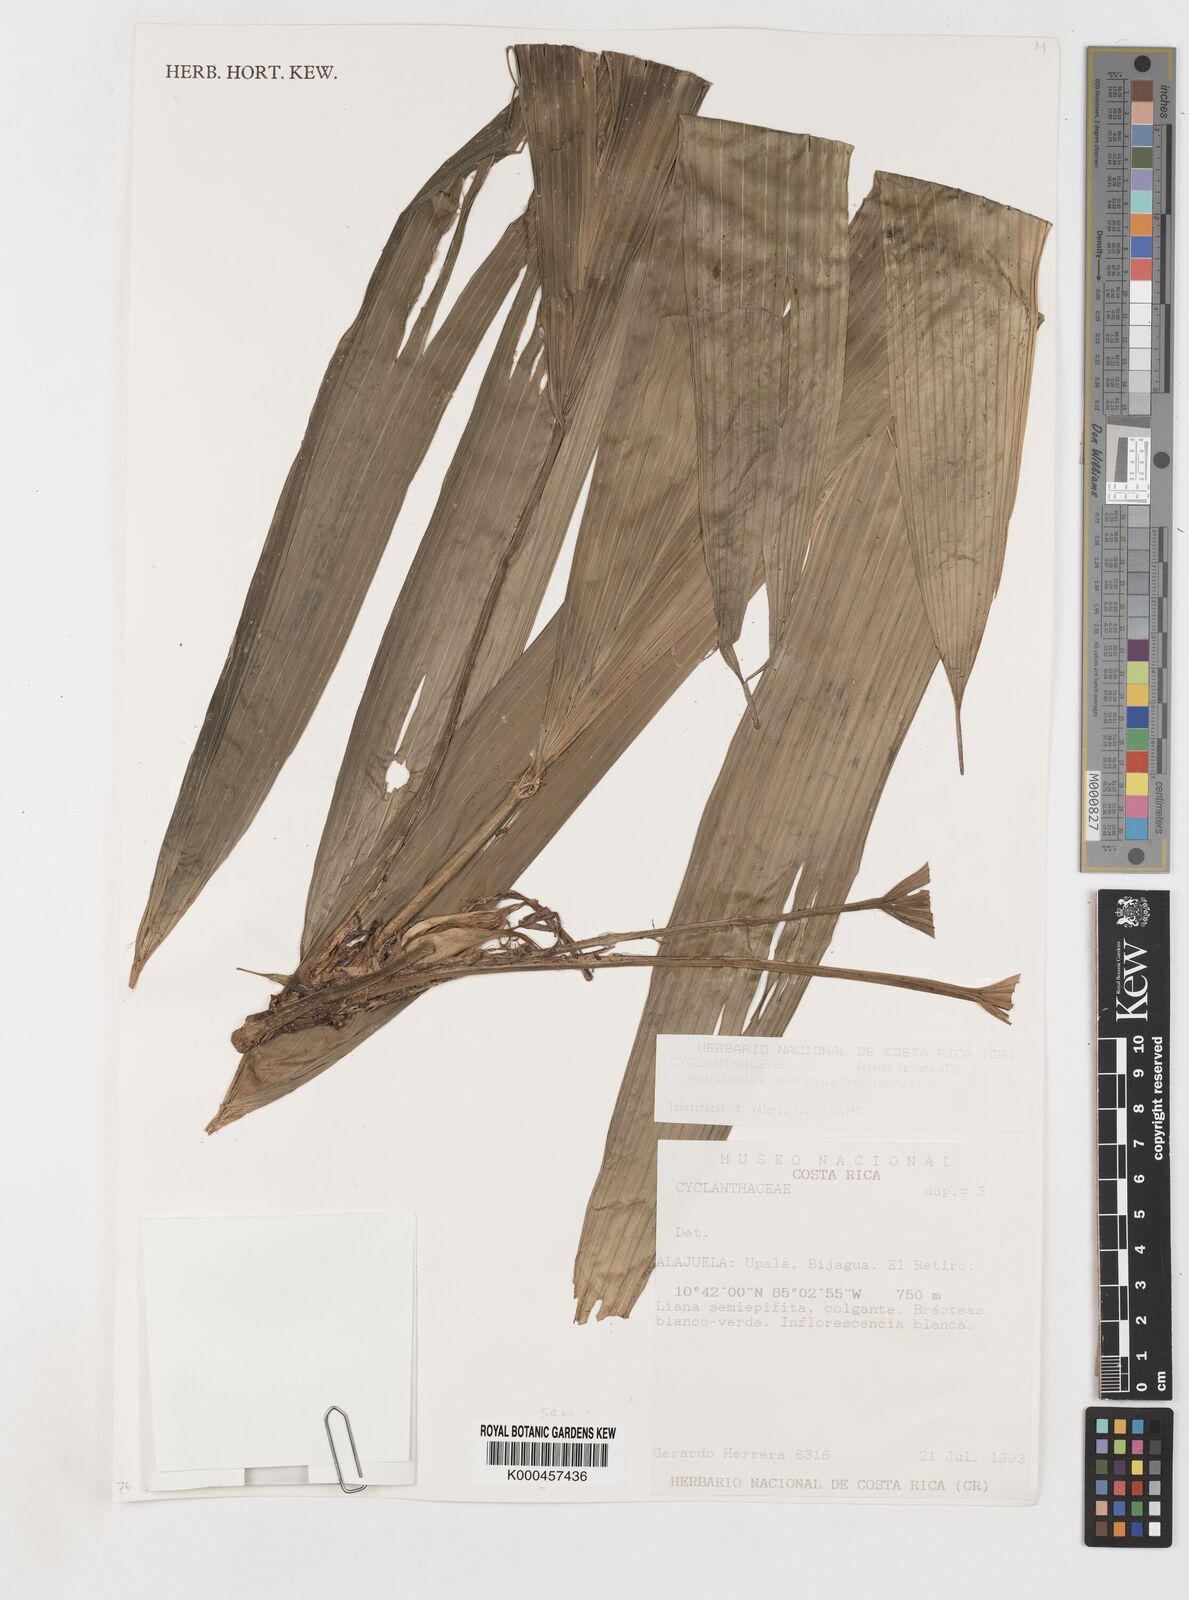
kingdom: Plantae
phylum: Tracheophyta
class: Liliopsida
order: Pandanales
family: Cyclanthaceae
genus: Asplundia
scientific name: Asplundia euryspatha
